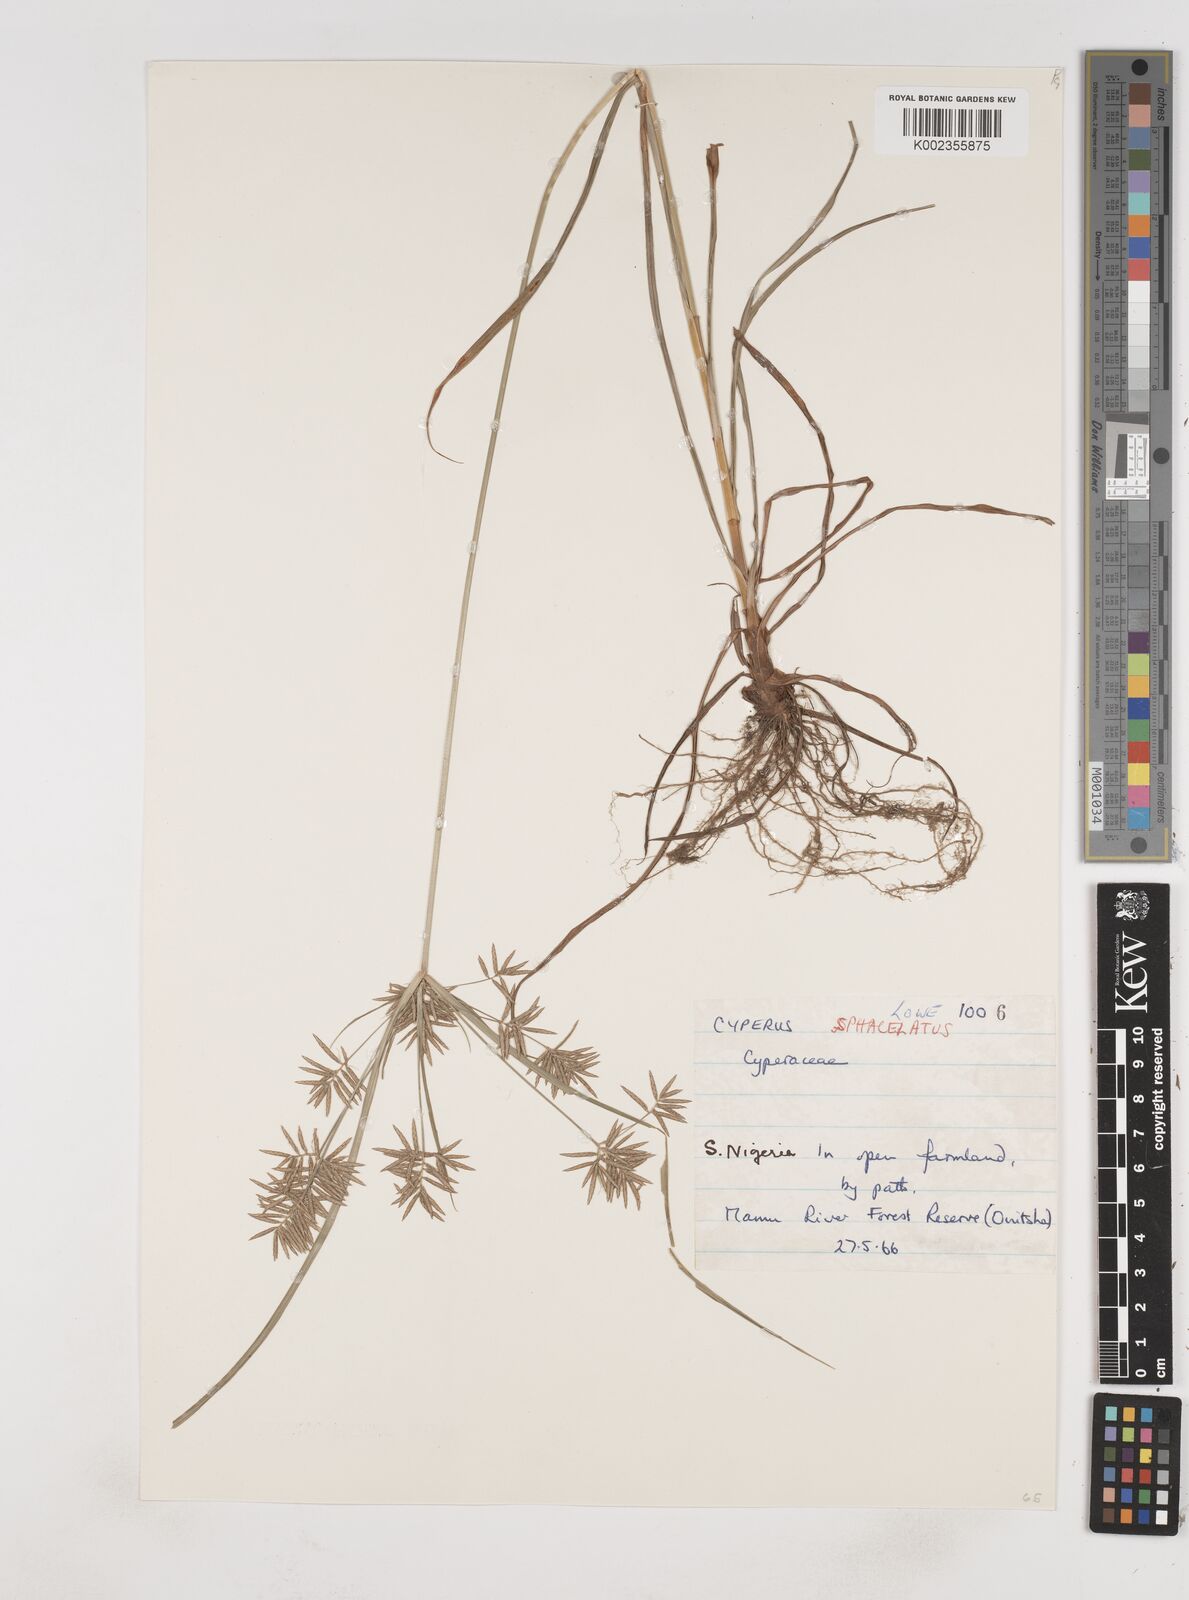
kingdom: Plantae
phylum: Tracheophyta
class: Liliopsida
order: Poales
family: Cyperaceae
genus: Cyperus
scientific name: Cyperus sphacelatus
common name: Roadside flatsedge
